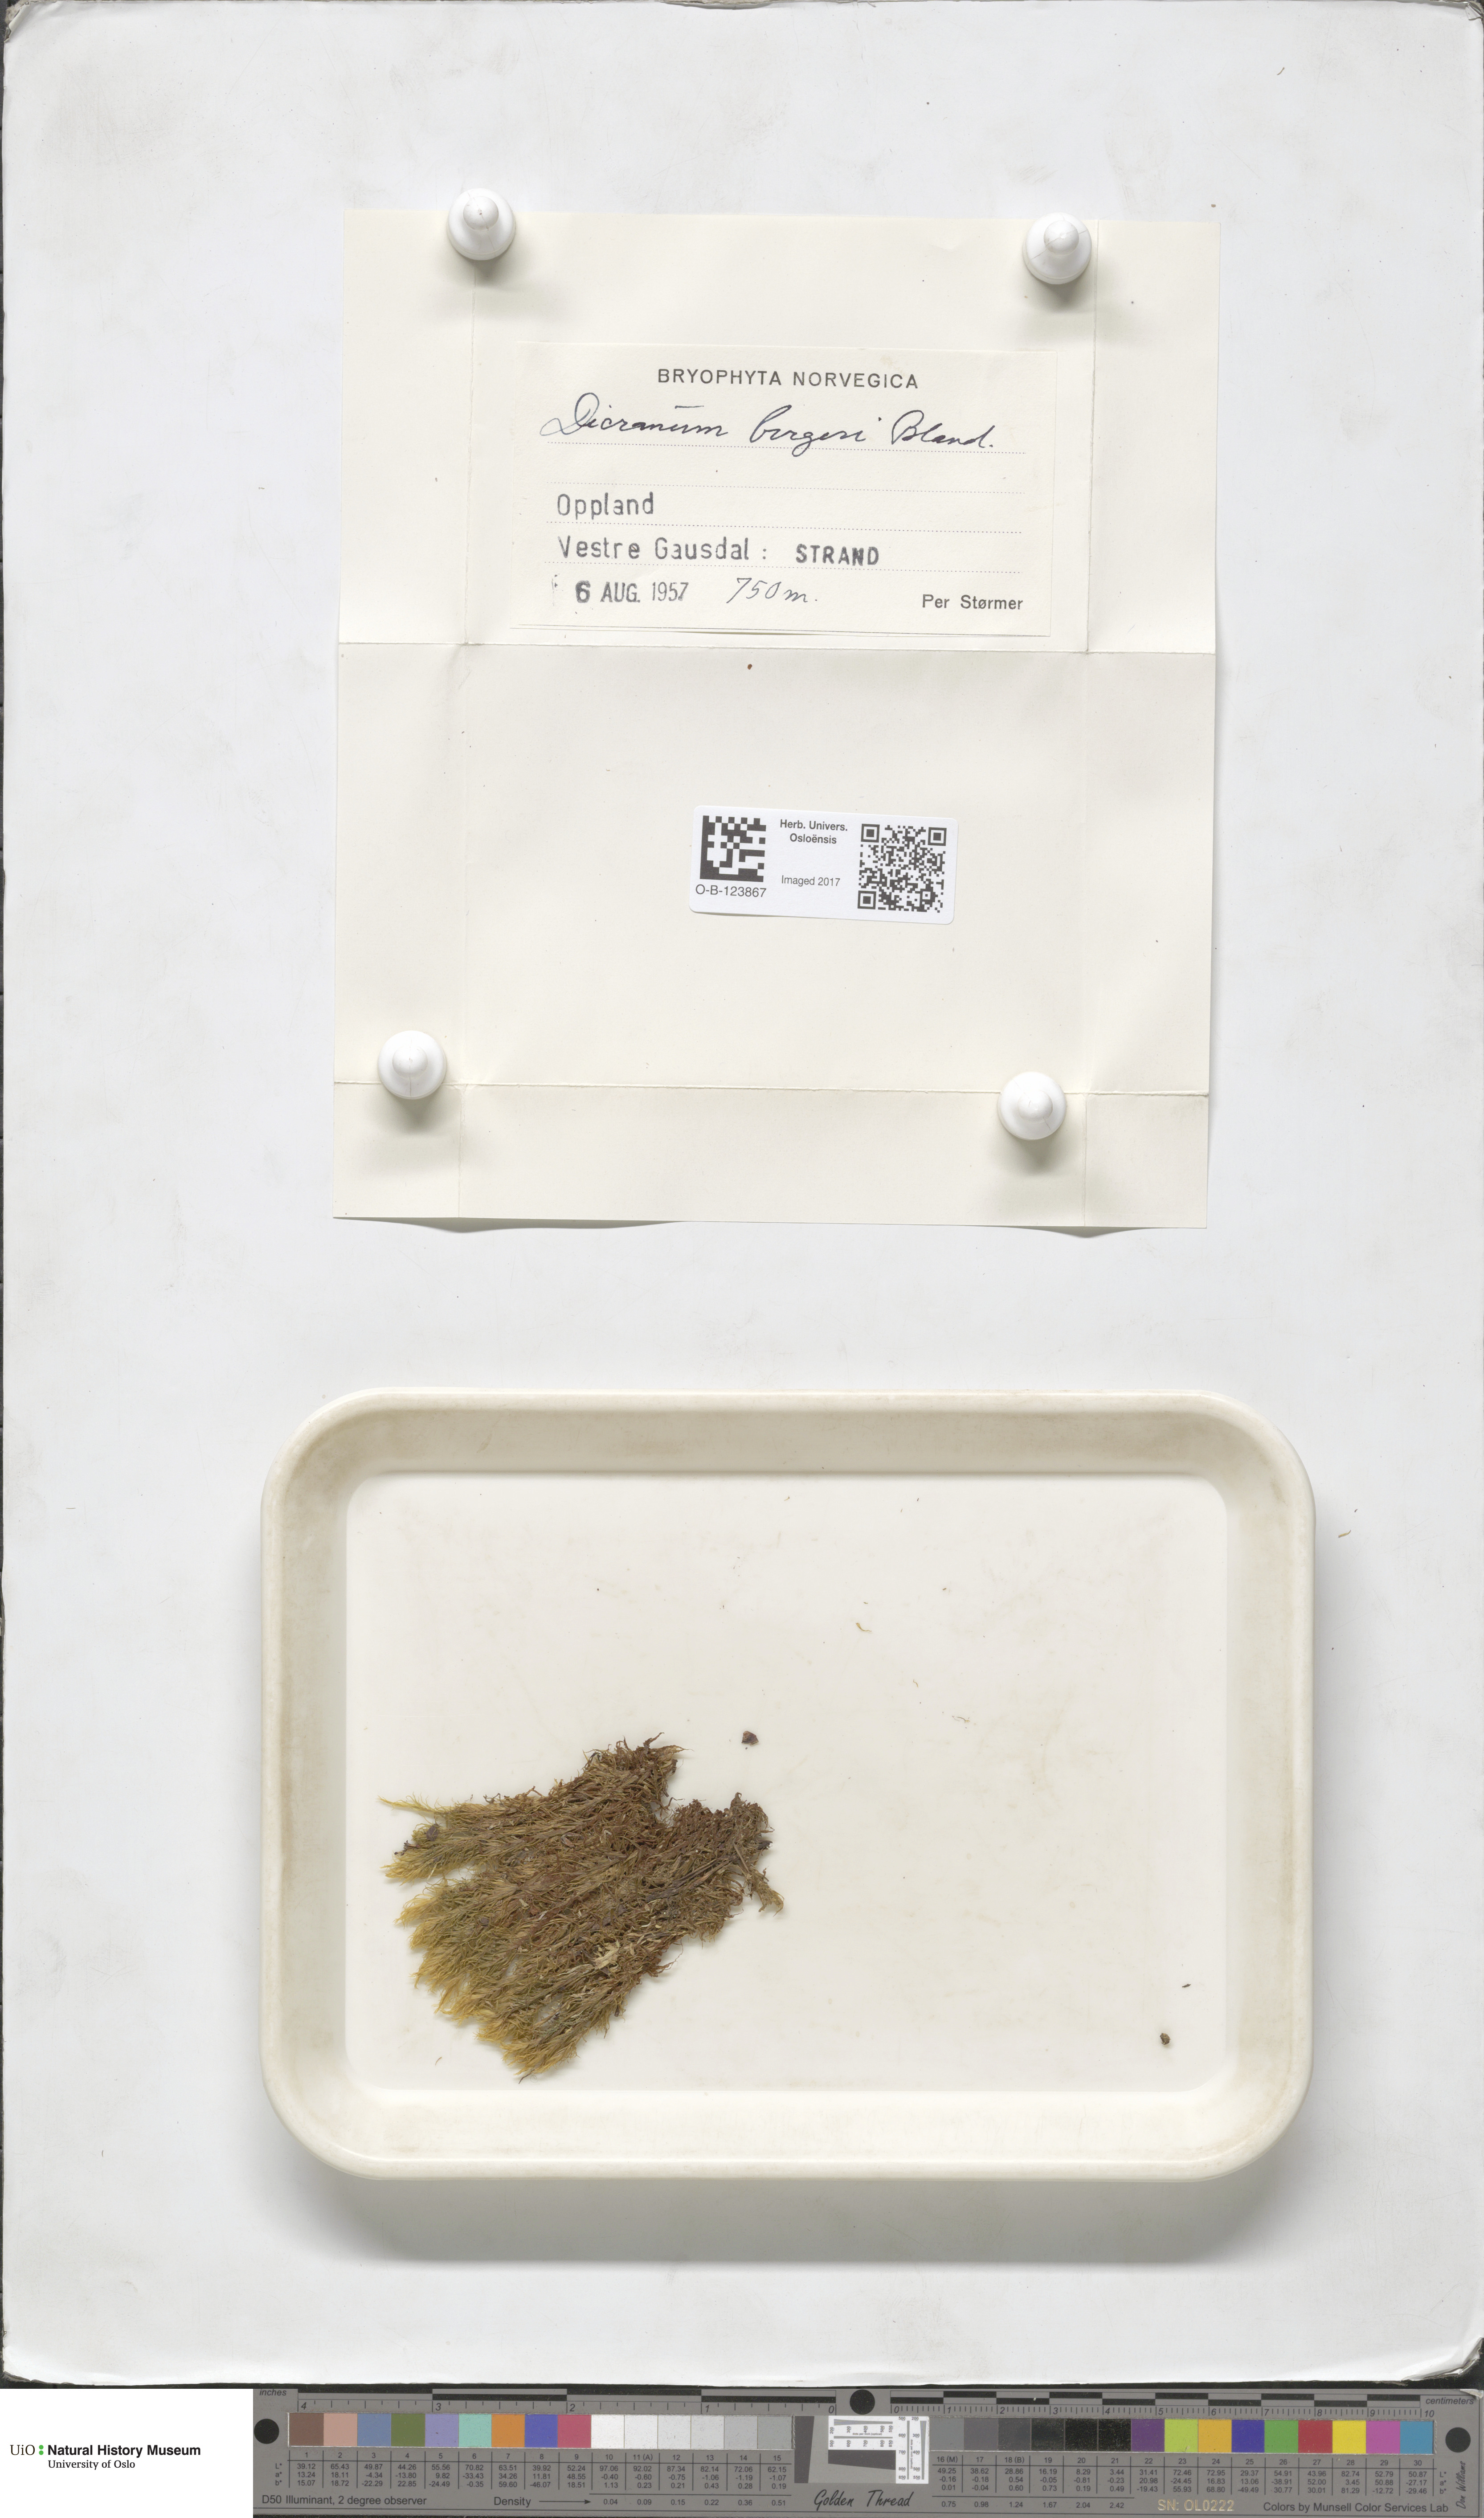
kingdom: Plantae
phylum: Bryophyta
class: Bryopsida
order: Dicranales
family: Dicranaceae
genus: Dicranum
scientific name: Dicranum undulatum
